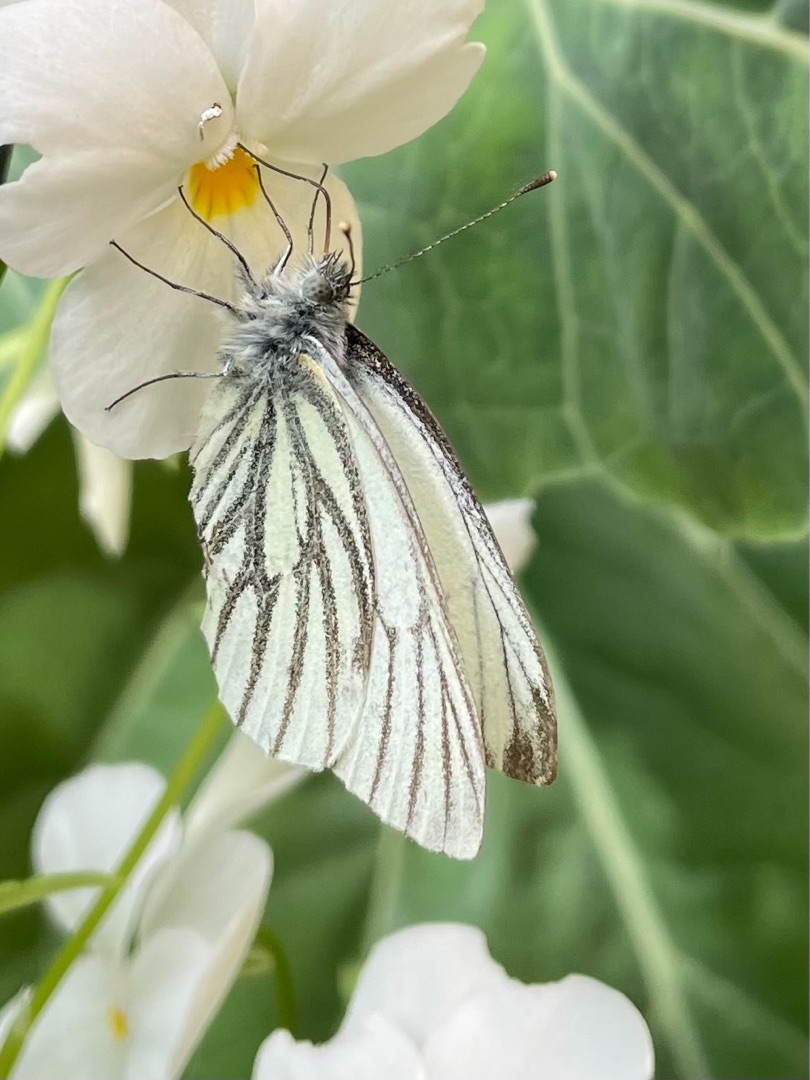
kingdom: Animalia
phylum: Arthropoda
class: Insecta
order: Lepidoptera
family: Pieridae
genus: Pieris
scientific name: Pieris napi
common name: Grønåret kålsommerfugl
